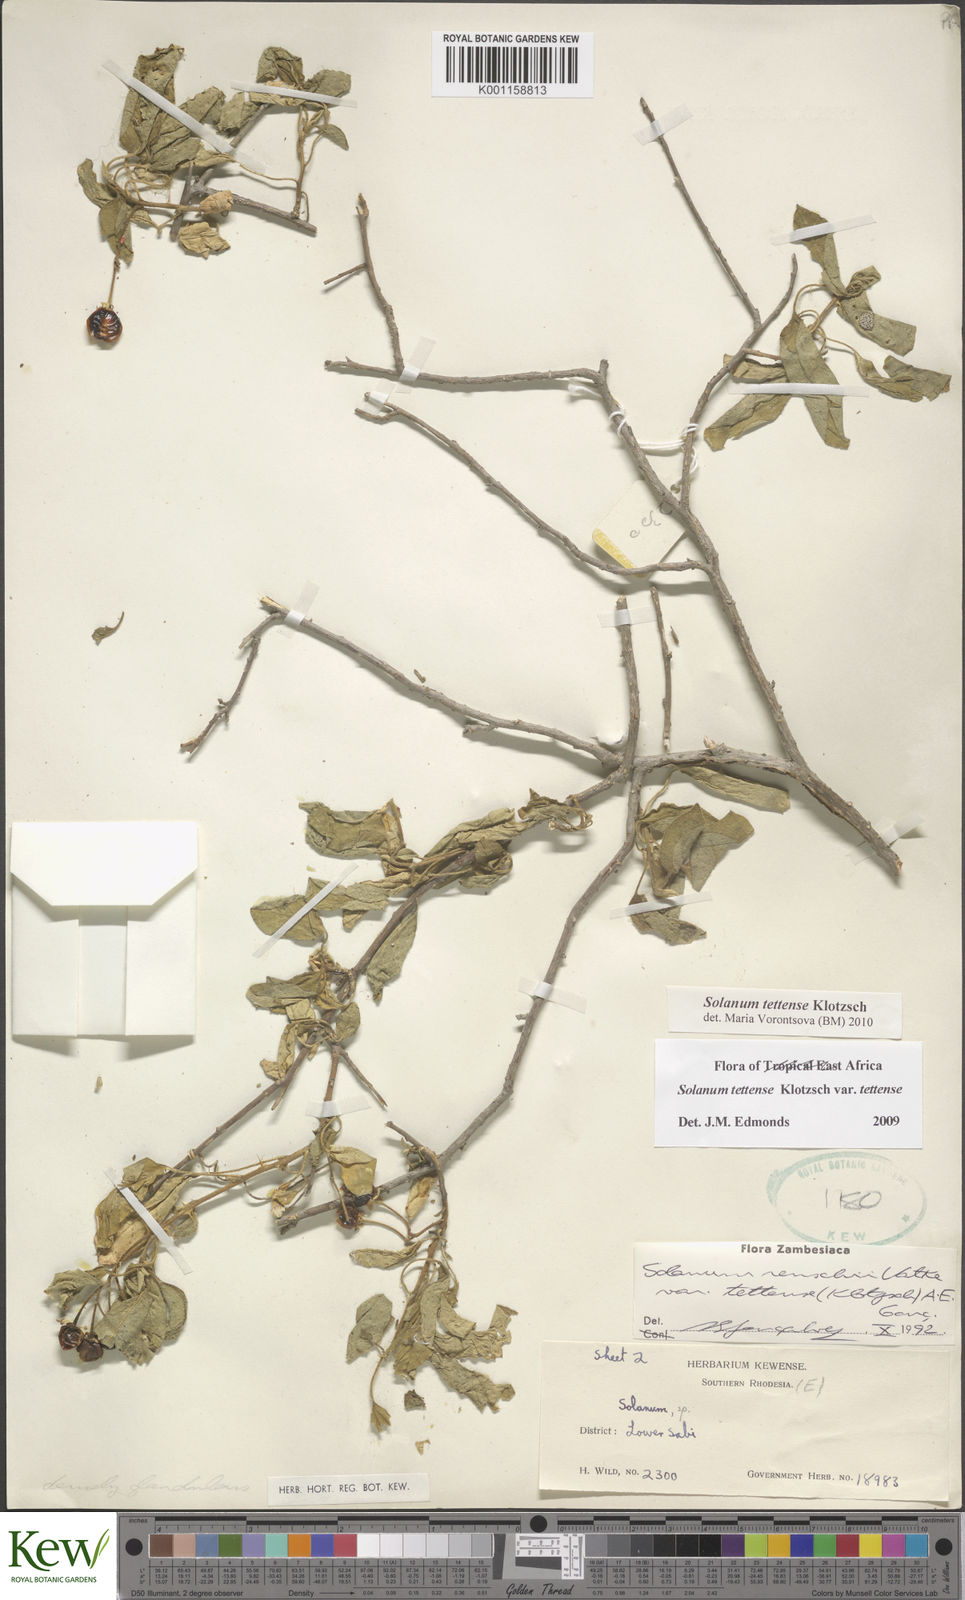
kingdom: Plantae
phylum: Tracheophyta
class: Magnoliopsida
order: Solanales
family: Solanaceae
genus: Solanum
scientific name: Solanum tettense
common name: Mozambique bitter apple
